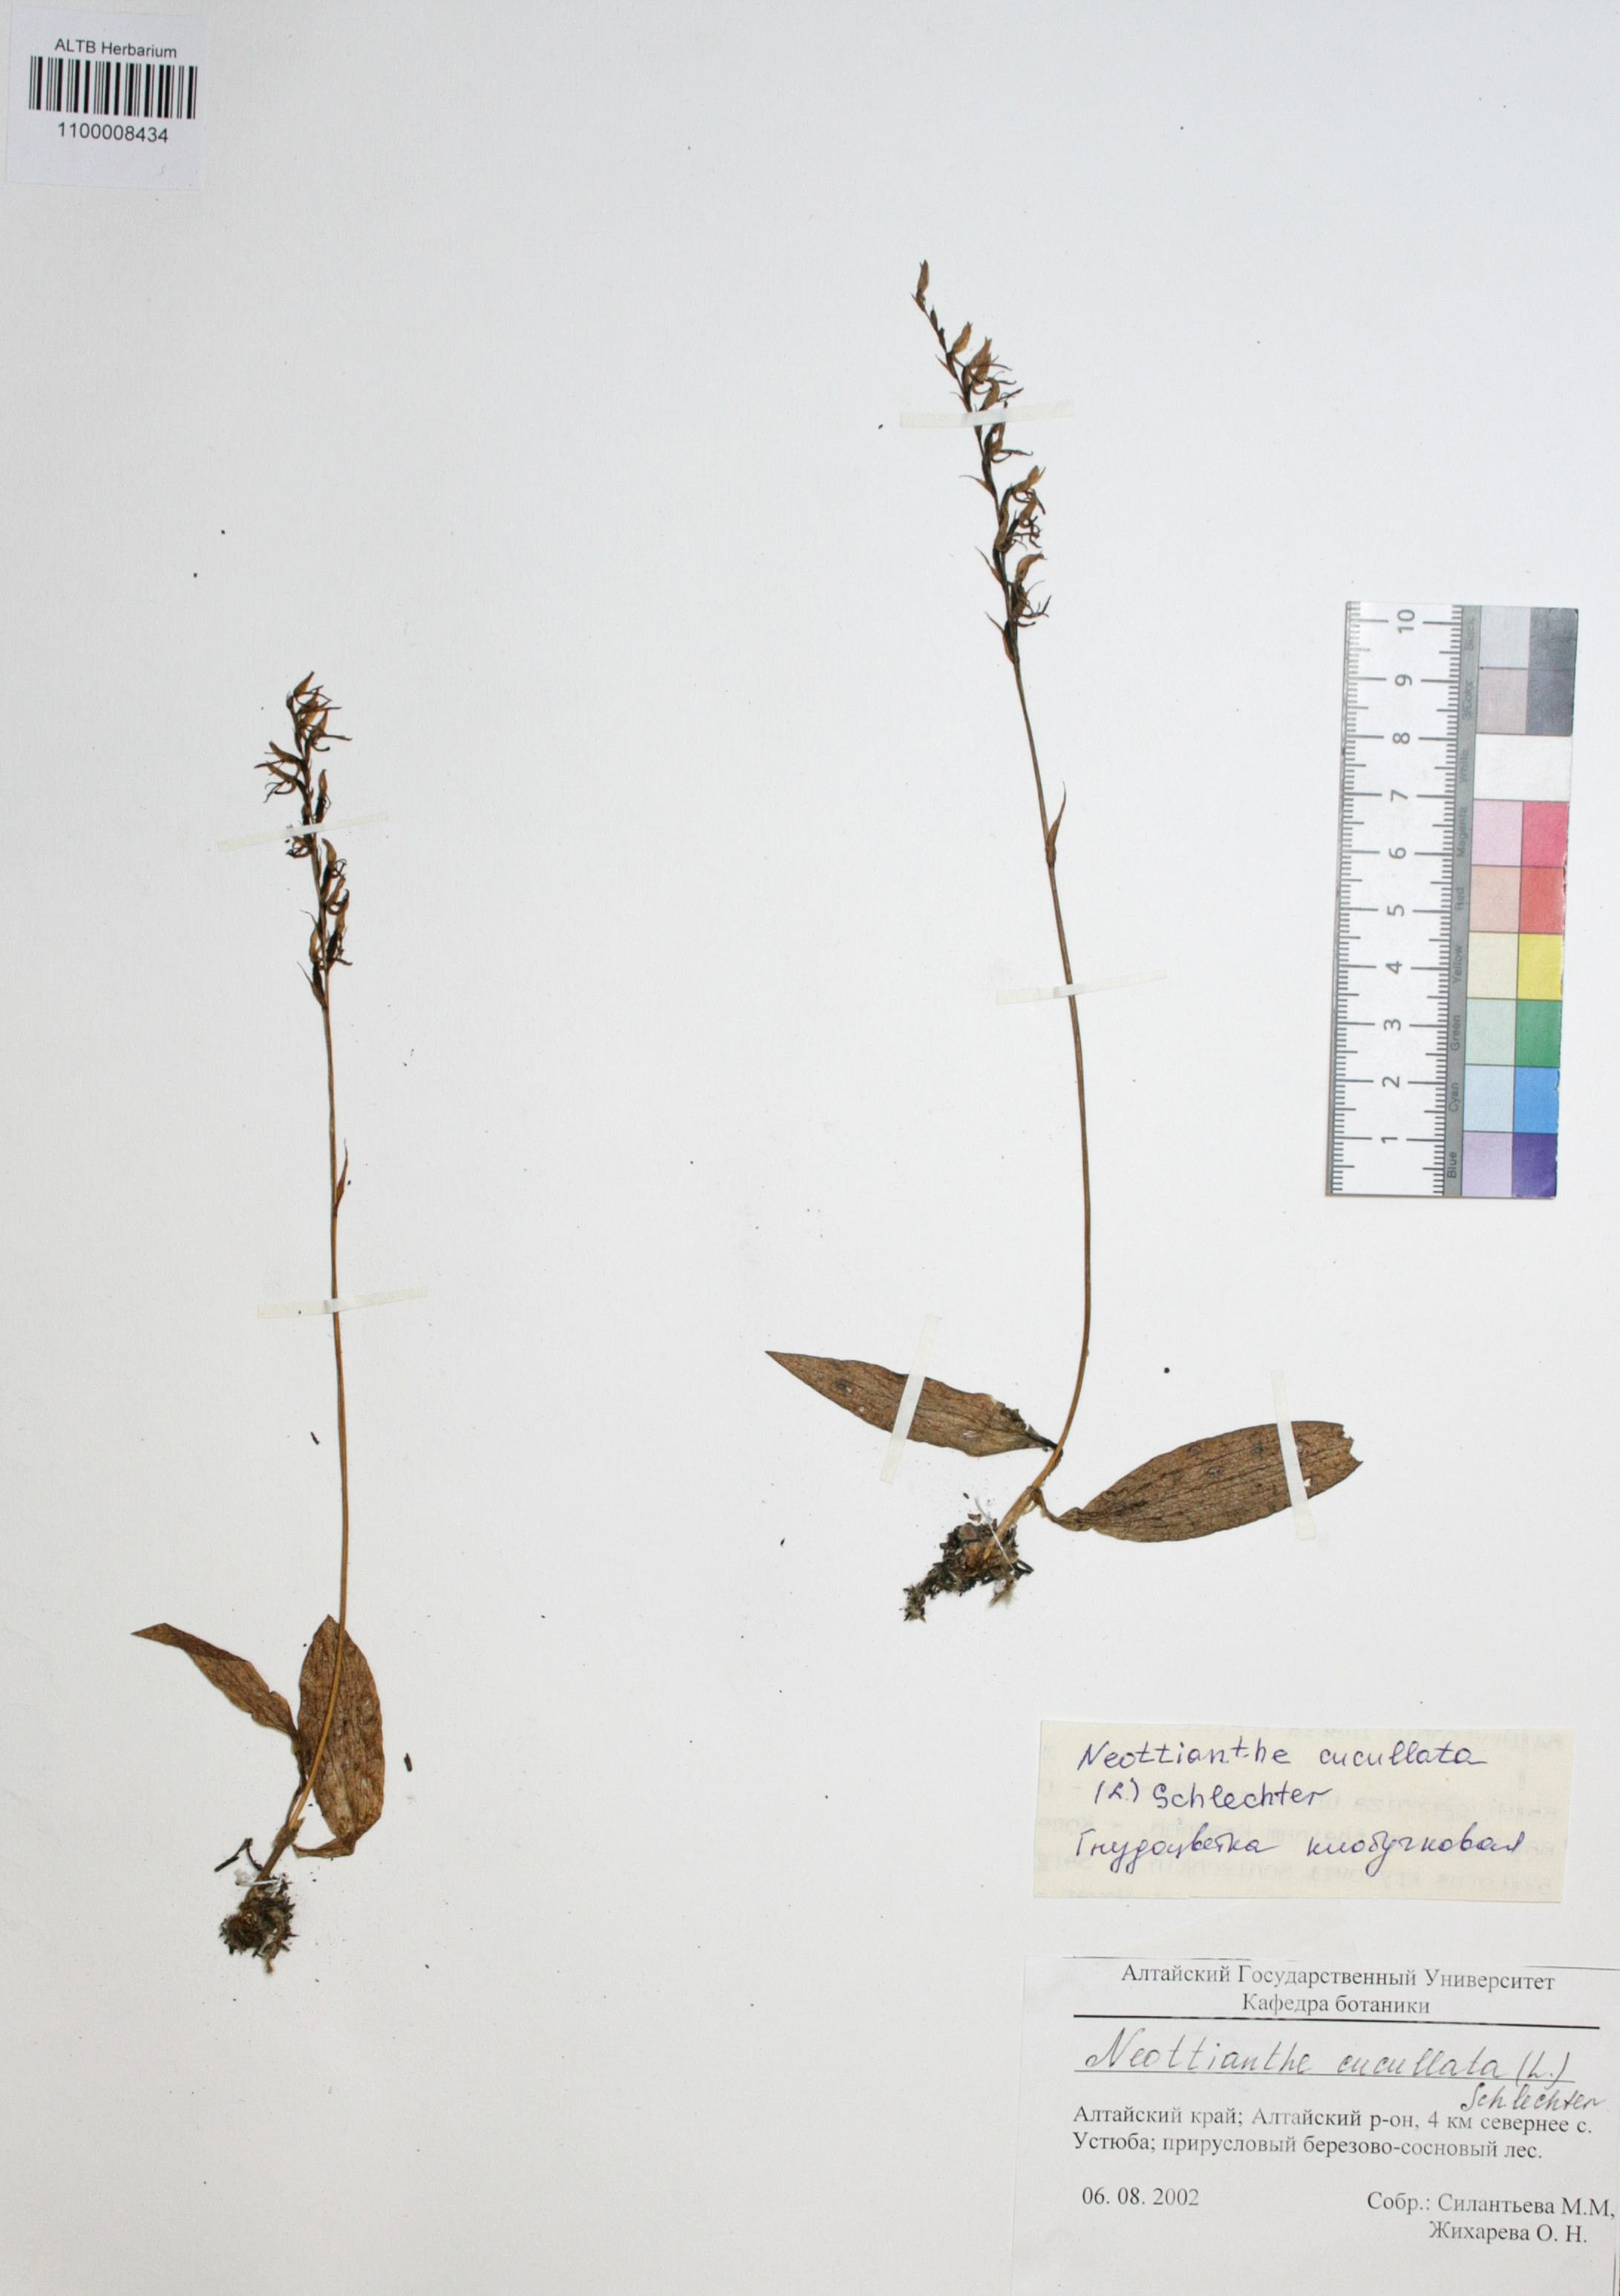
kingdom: Plantae
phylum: Tracheophyta
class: Liliopsida
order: Asparagales
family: Orchidaceae
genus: Hemipilia
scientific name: Hemipilia cucullata
